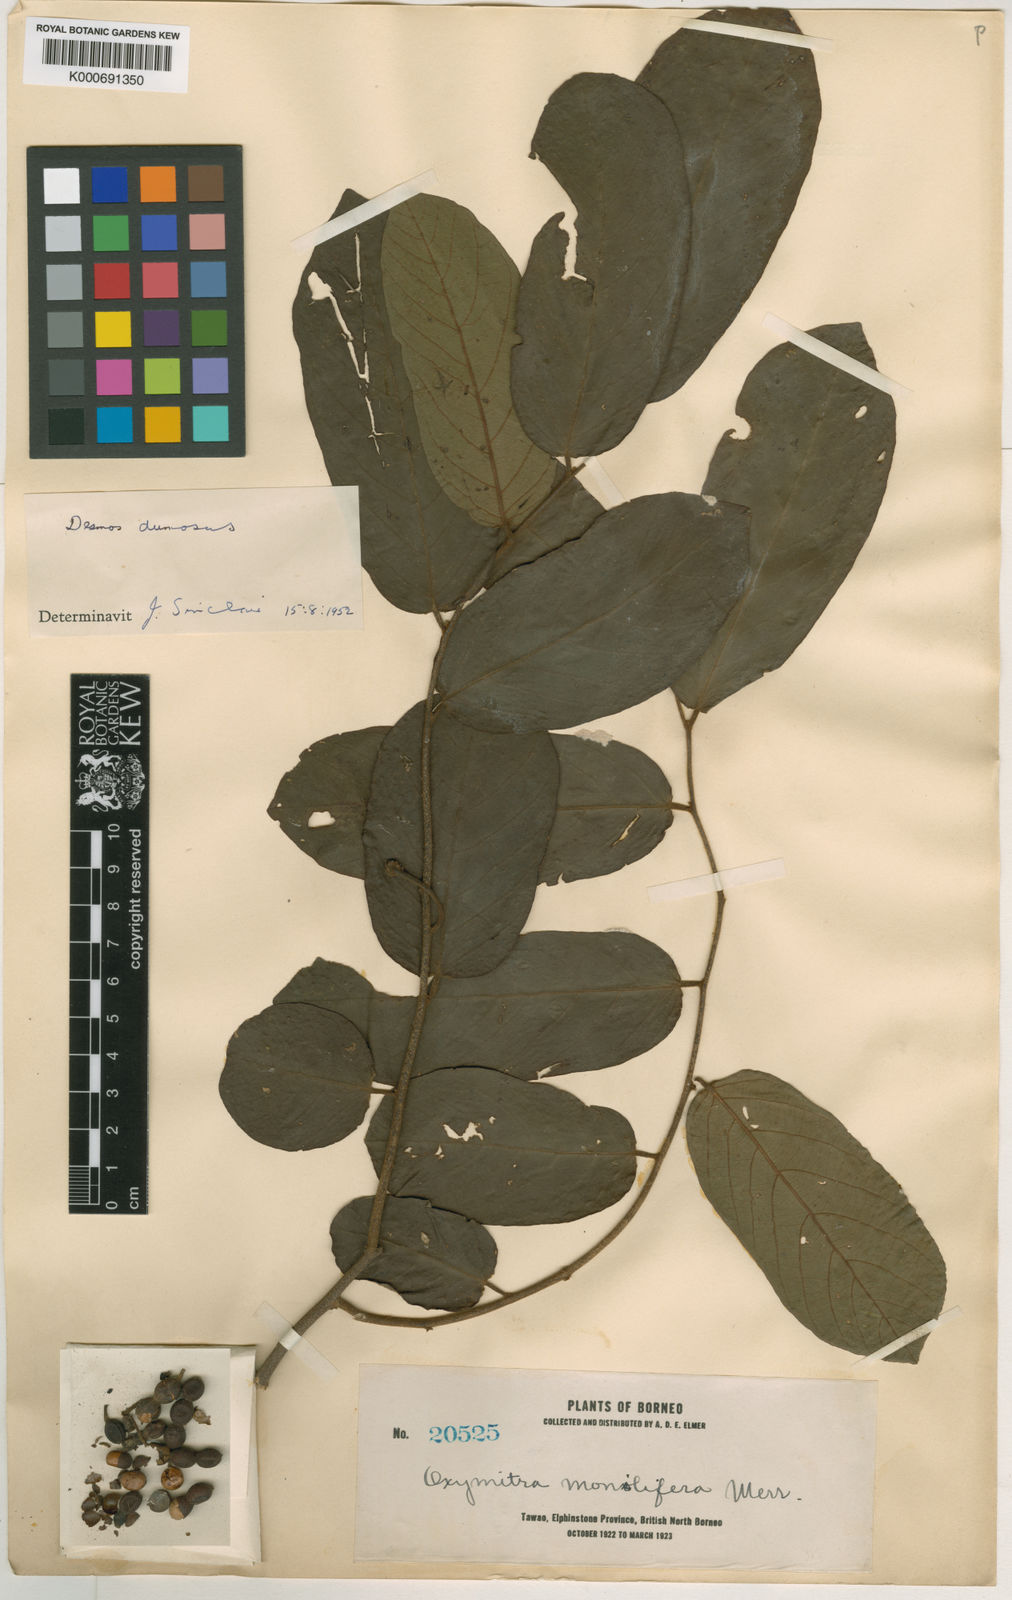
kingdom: Plantae
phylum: Tracheophyta
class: Magnoliopsida
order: Magnoliales
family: Annonaceae
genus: Desmos
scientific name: Desmos dumosus
